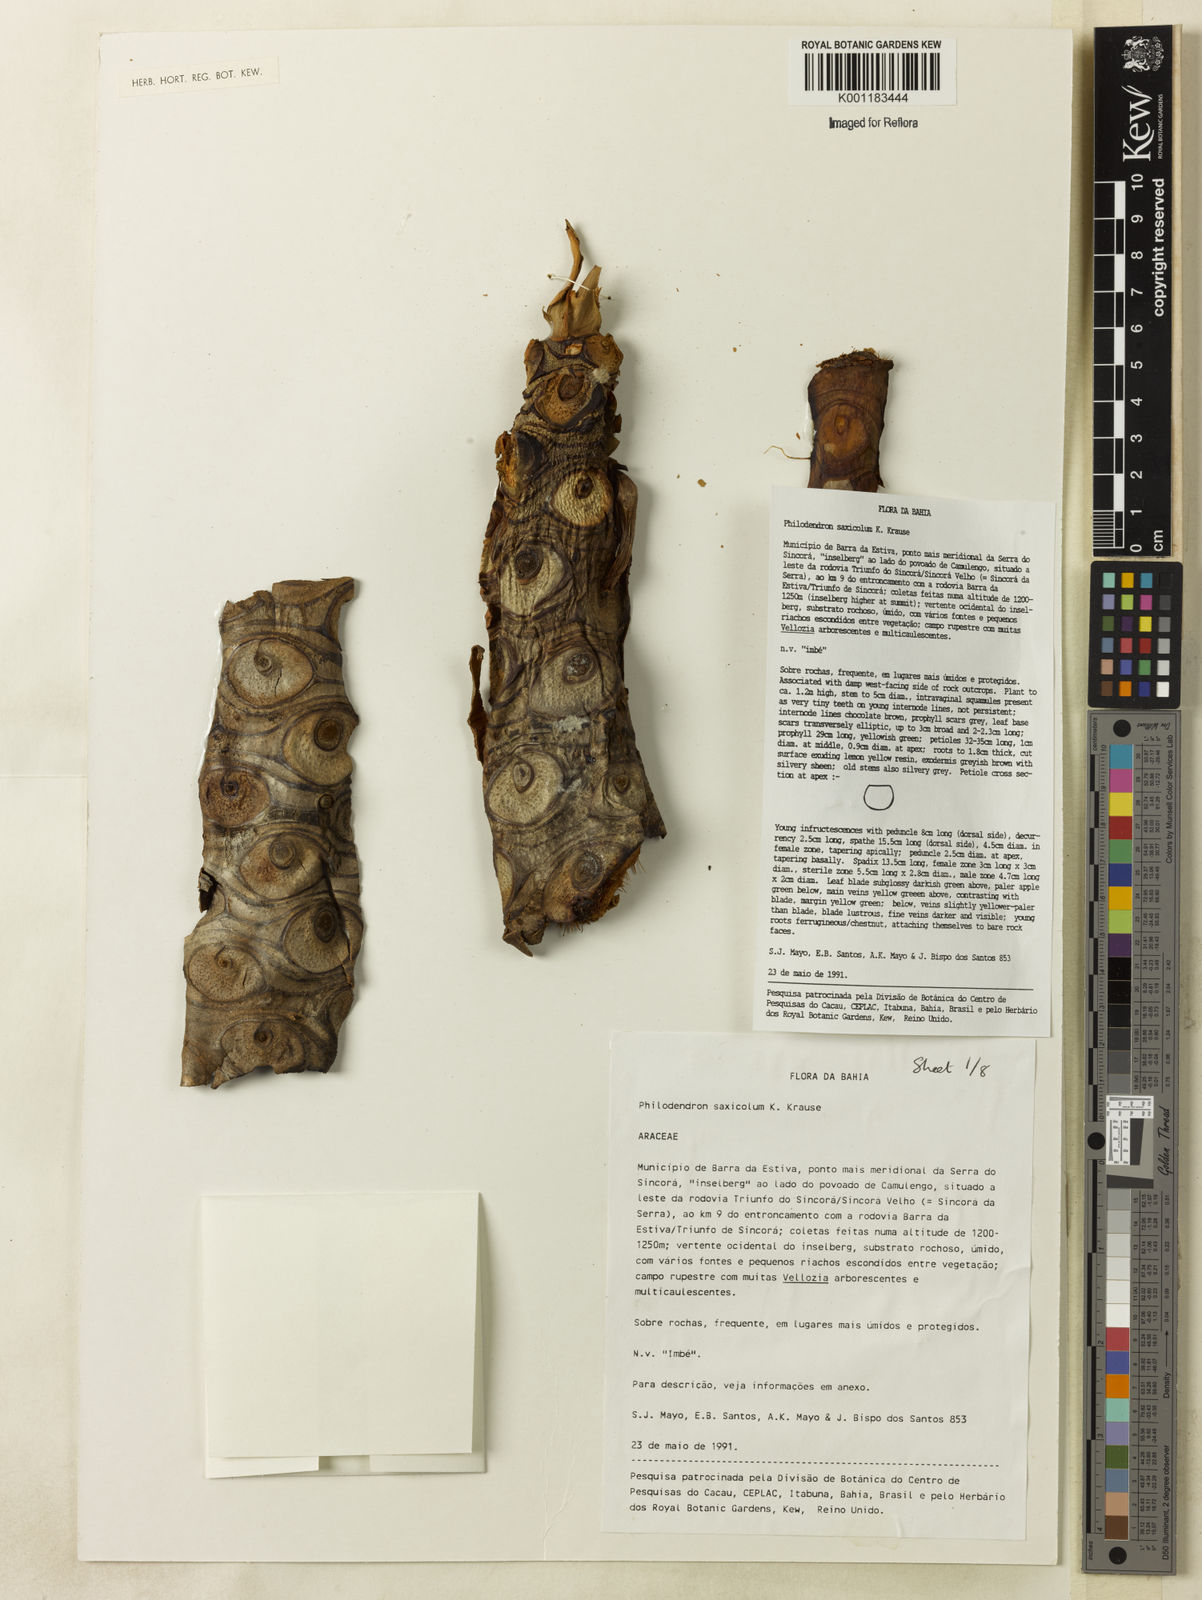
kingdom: Plantae
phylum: Tracheophyta
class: Liliopsida
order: Alismatales
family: Araceae
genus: Thaumatophyllum
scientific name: Thaumatophyllum saxicola
